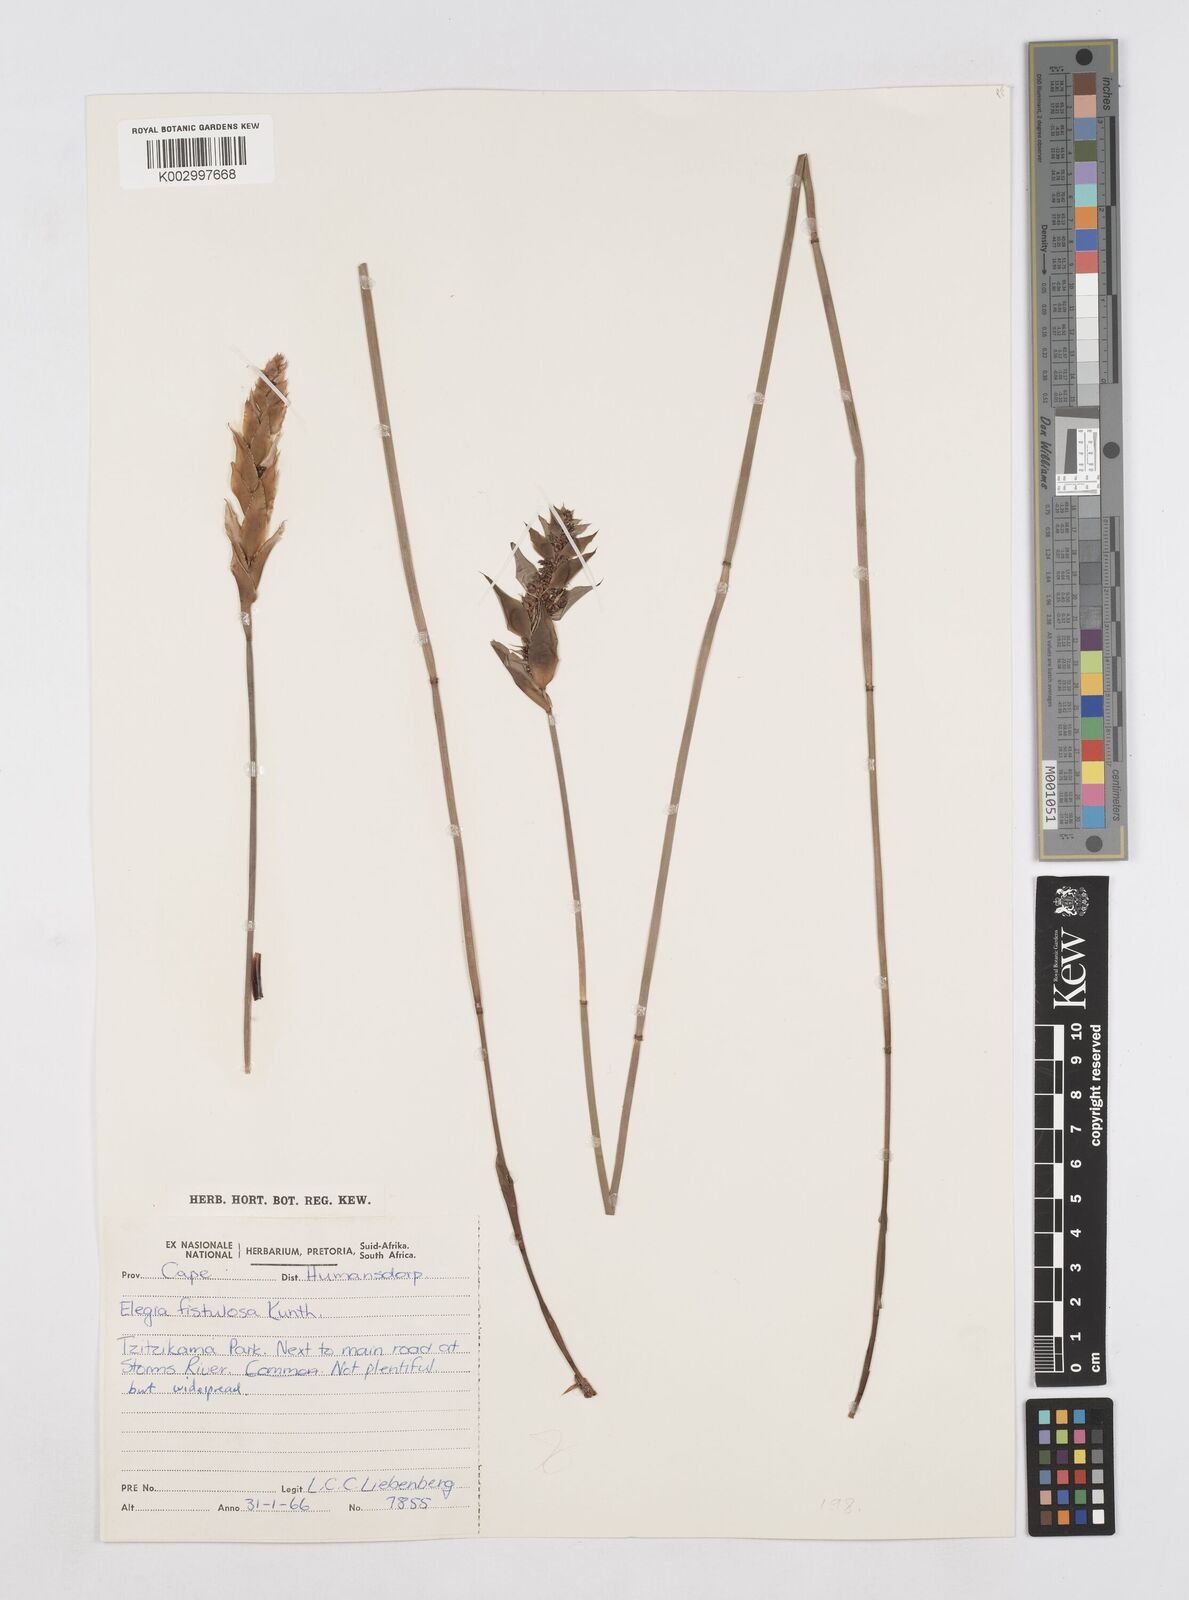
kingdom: Plantae
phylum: Tracheophyta
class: Liliopsida
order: Poales
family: Restionaceae
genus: Elegia
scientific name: Elegia fistulosa
